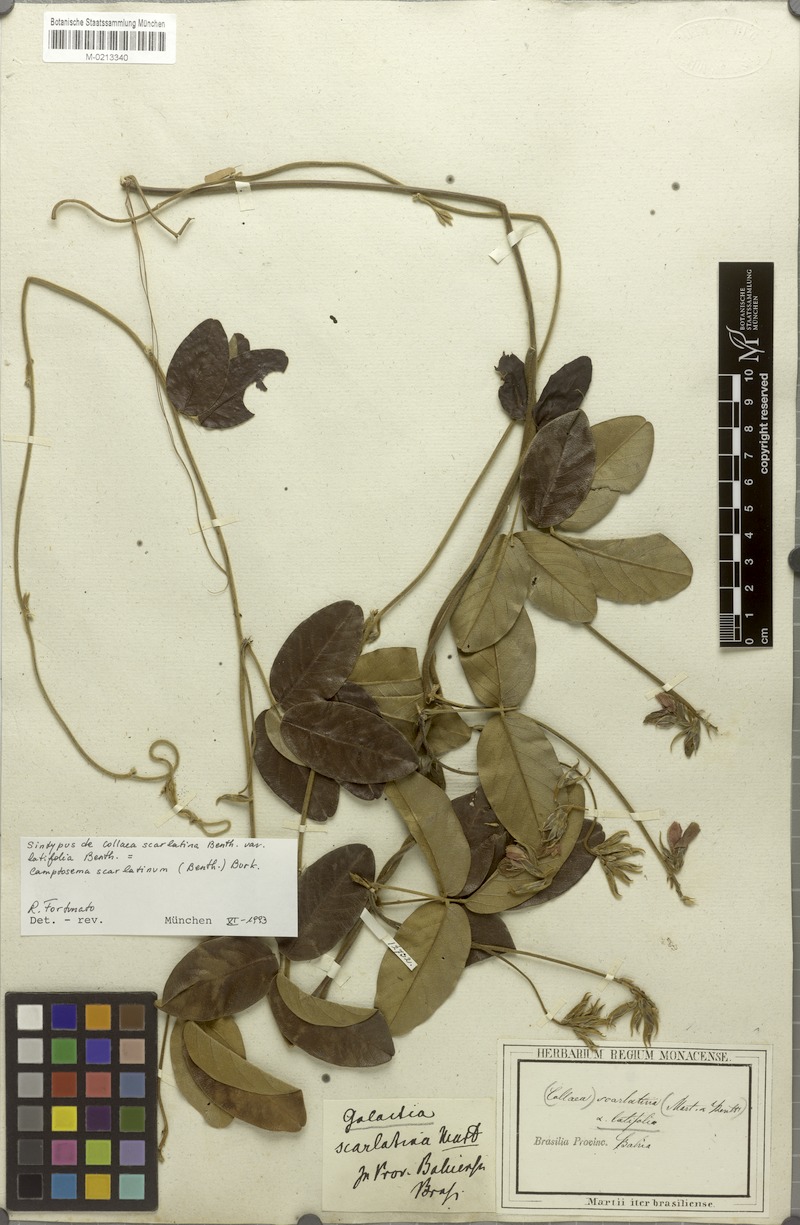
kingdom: Plantae
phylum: Tracheophyta
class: Magnoliopsida
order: Fabales
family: Fabaceae
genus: Betencourtia
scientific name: Betencourtia scarlatina
